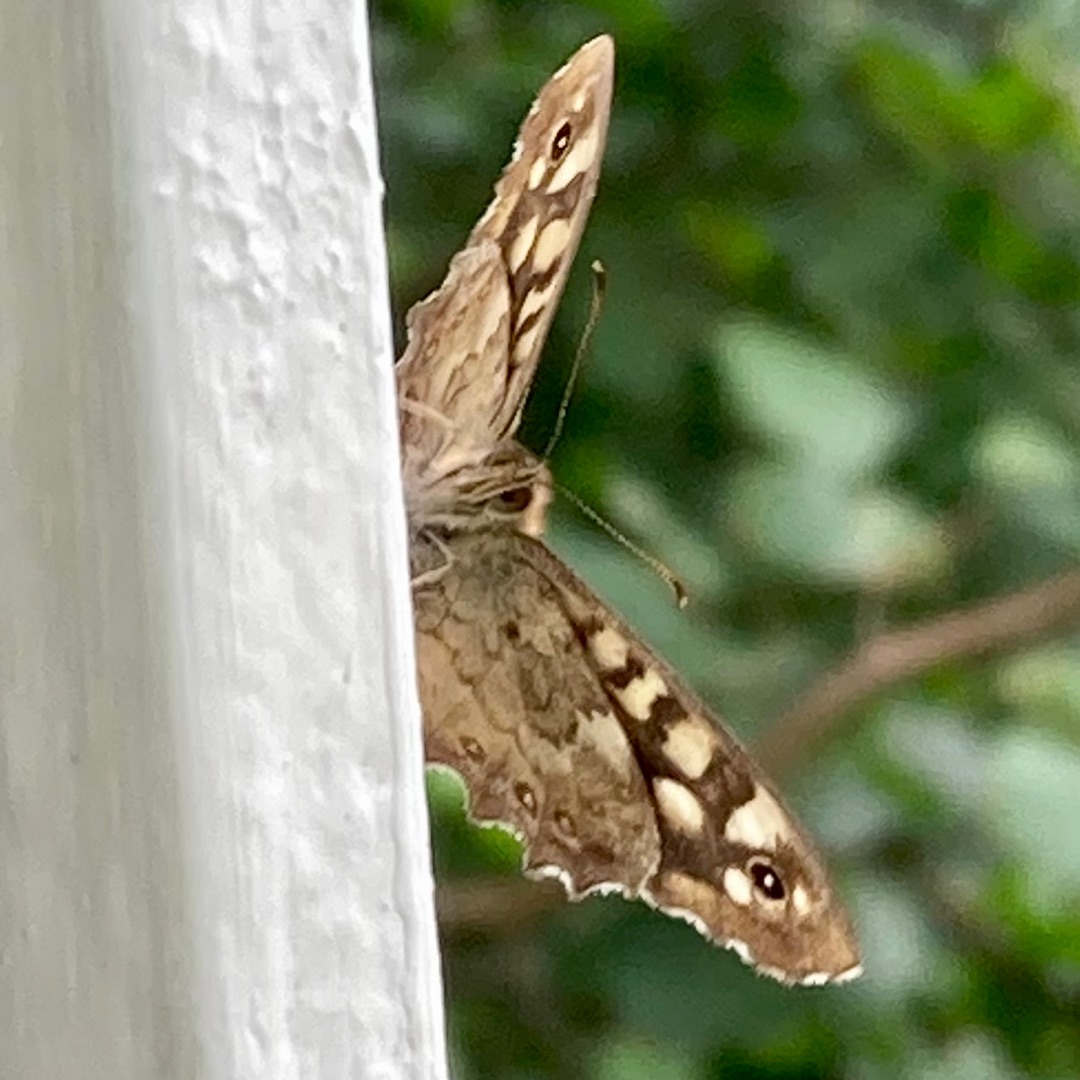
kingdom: Animalia
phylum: Arthropoda
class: Insecta
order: Lepidoptera
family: Nymphalidae
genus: Pararge
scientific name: Pararge aegeria
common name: Skovrandøje
